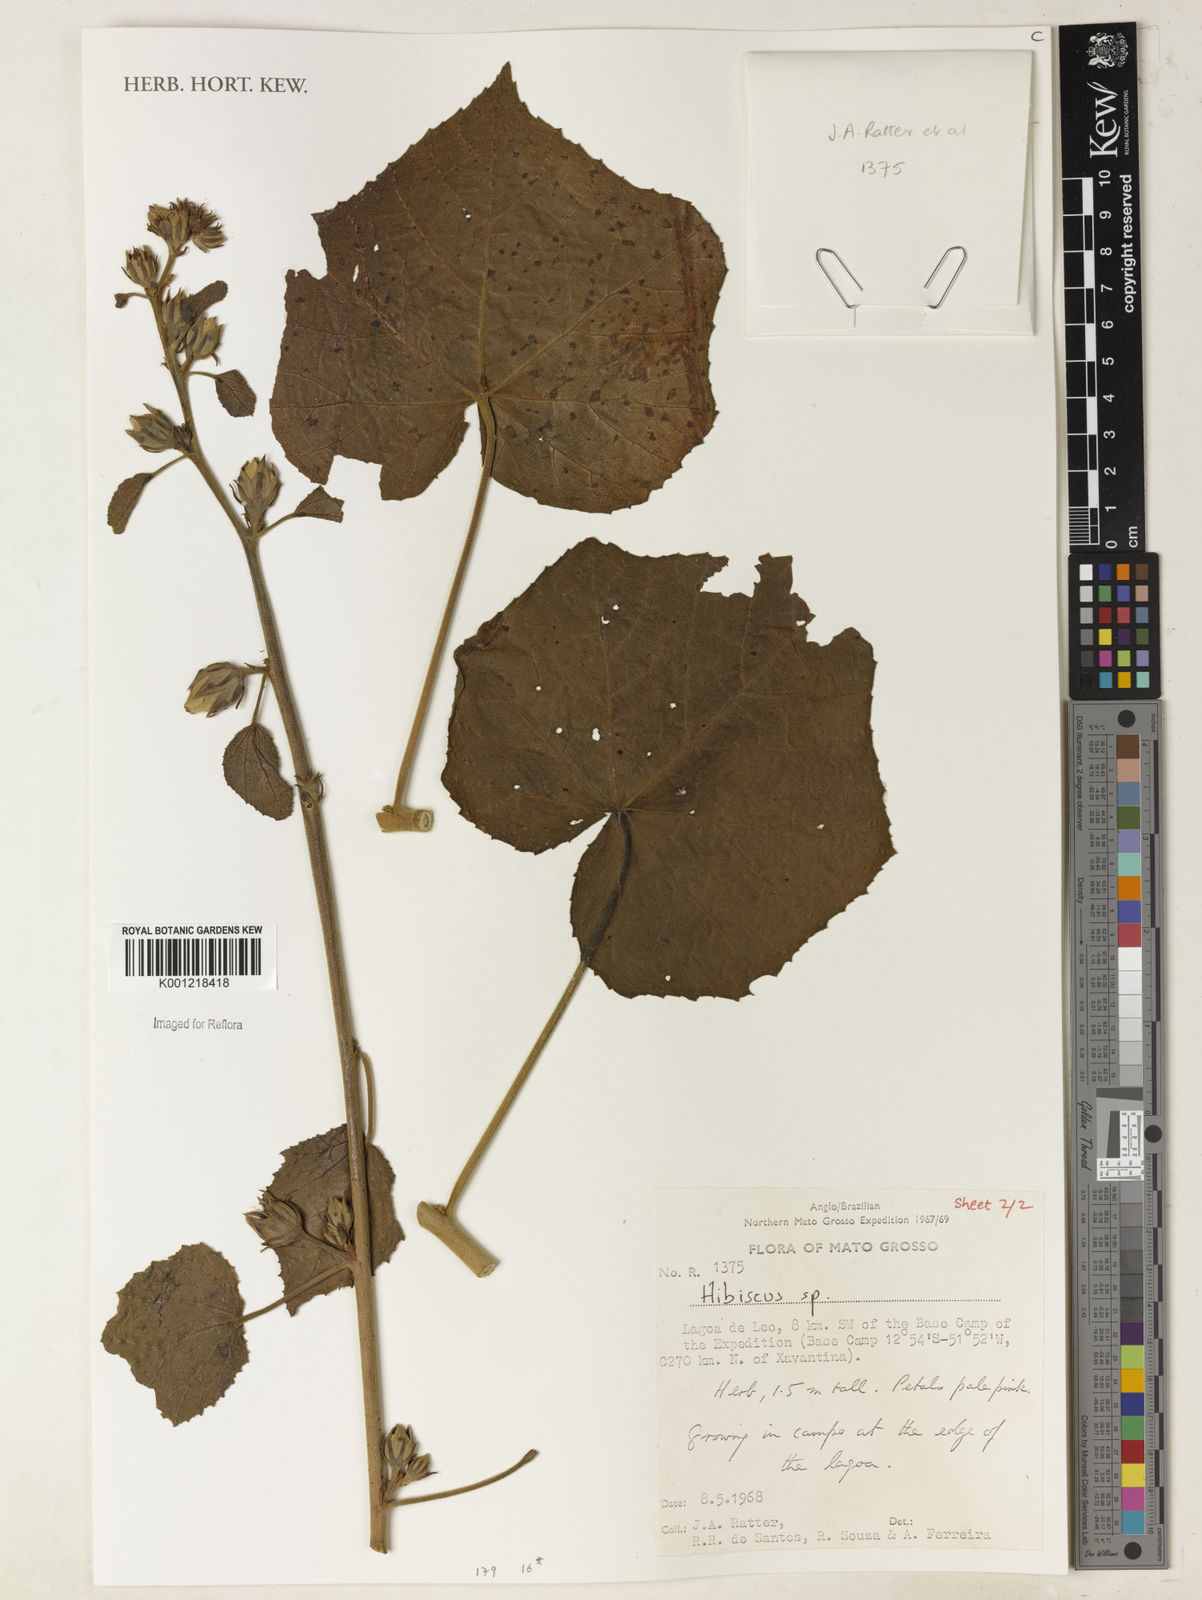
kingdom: Plantae
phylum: Tracheophyta
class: Magnoliopsida
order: Malvales
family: Malvaceae
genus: Hibiscus
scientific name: Hibiscus
